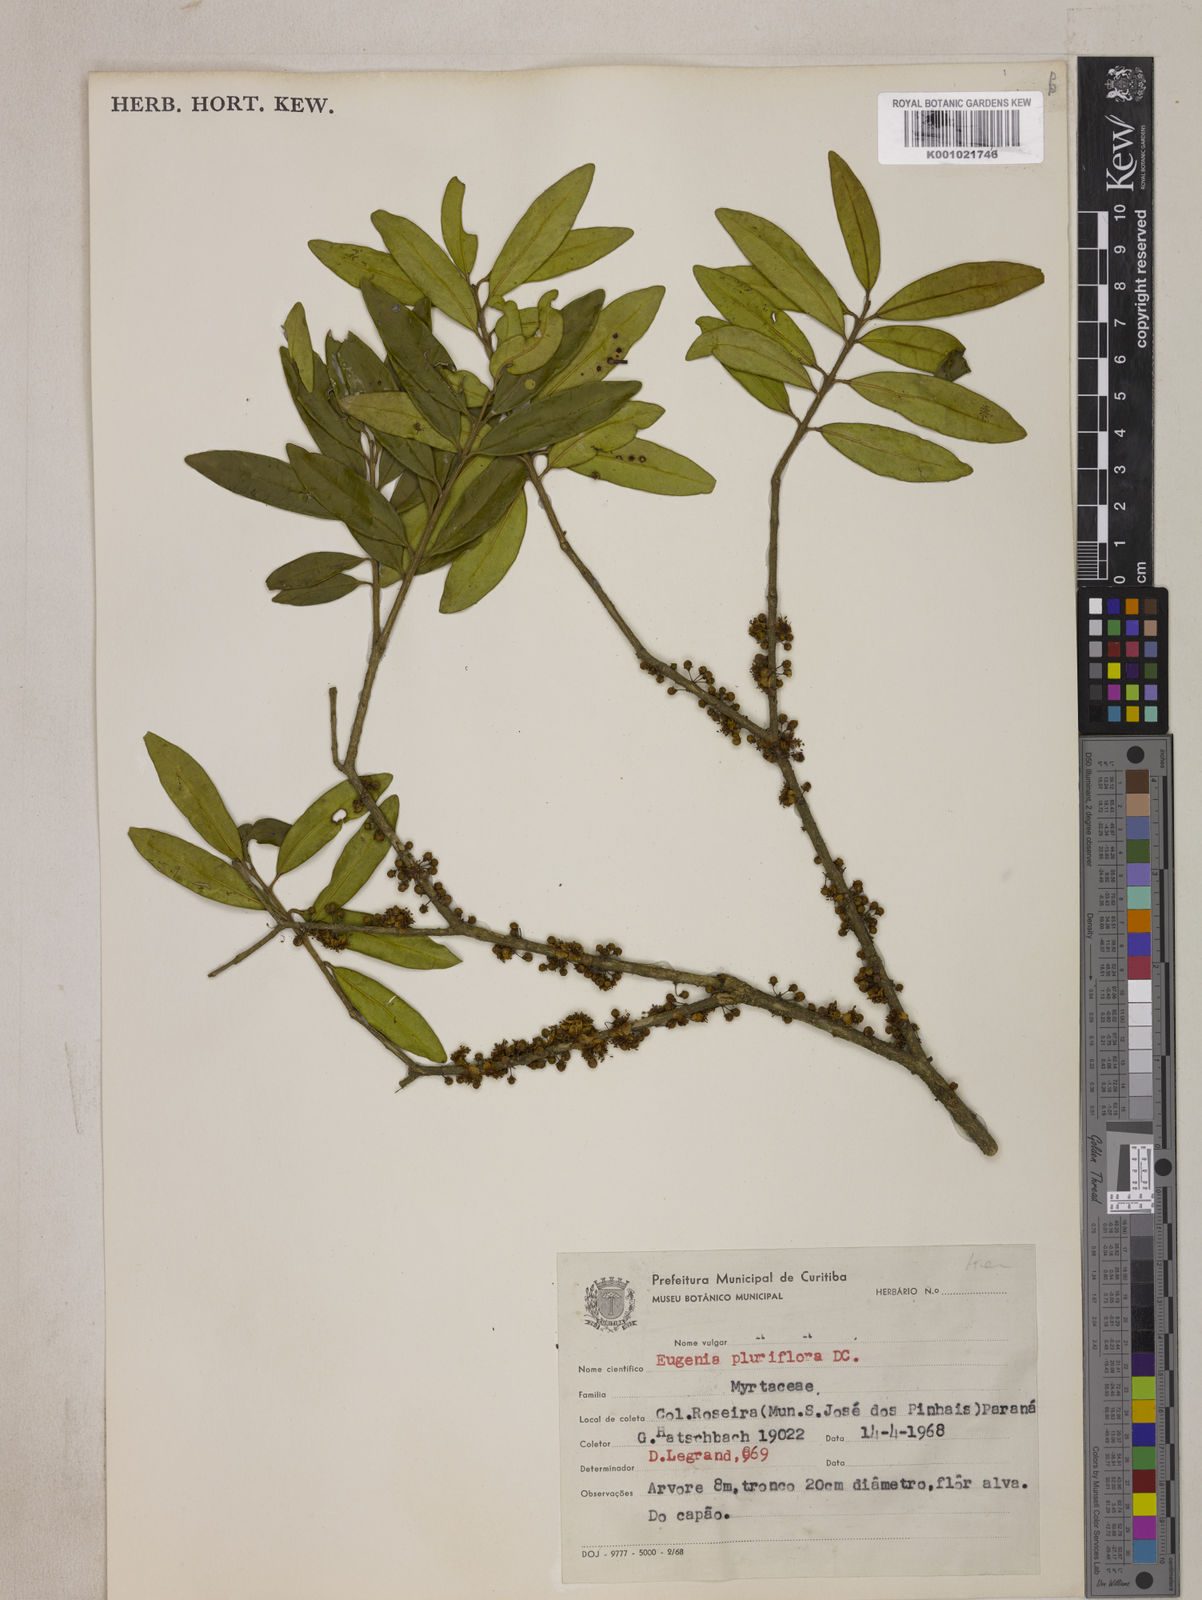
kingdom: Plantae
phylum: Tracheophyta
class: Magnoliopsida
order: Myrtales
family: Myrtaceae
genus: Eugenia
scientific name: Eugenia pluriflora
